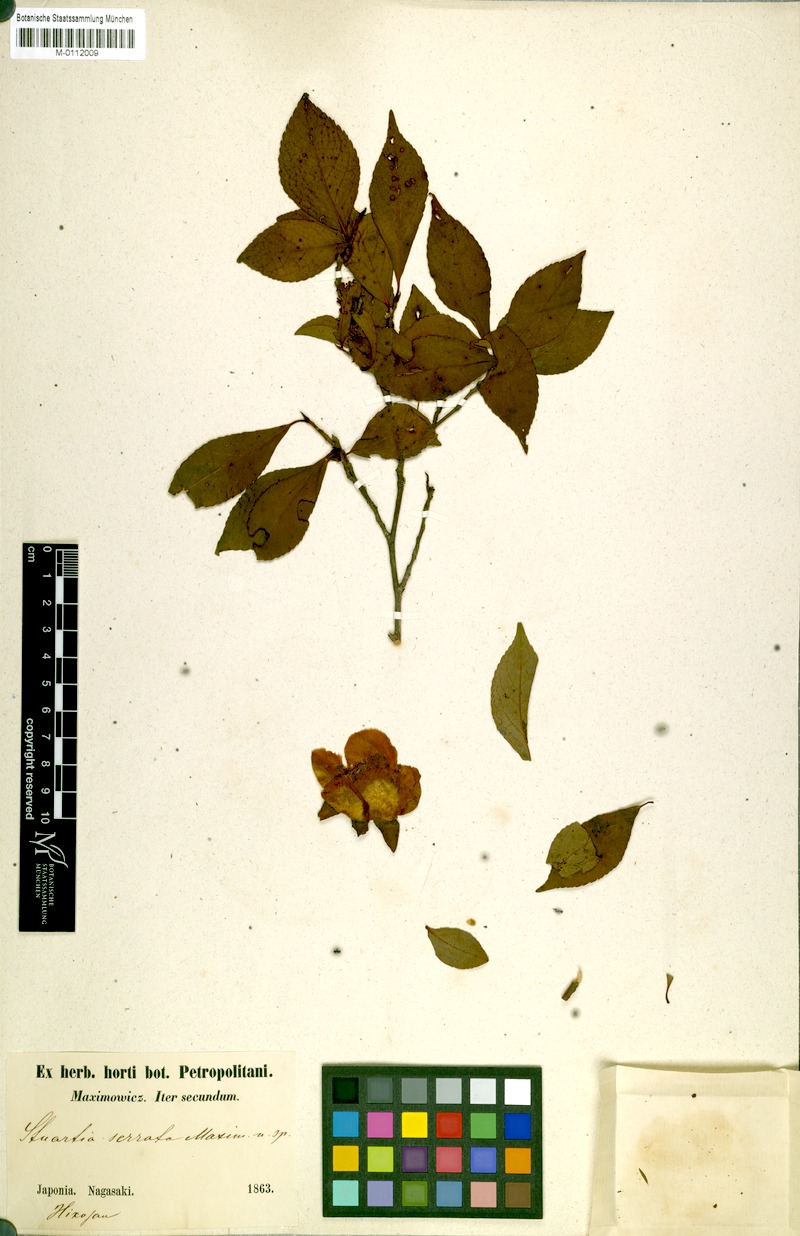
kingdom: Plantae
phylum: Tracheophyta
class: Magnoliopsida
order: Ericales
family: Theaceae
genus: Stewartia
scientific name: Stewartia serrata
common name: Sawtooth stewartia
